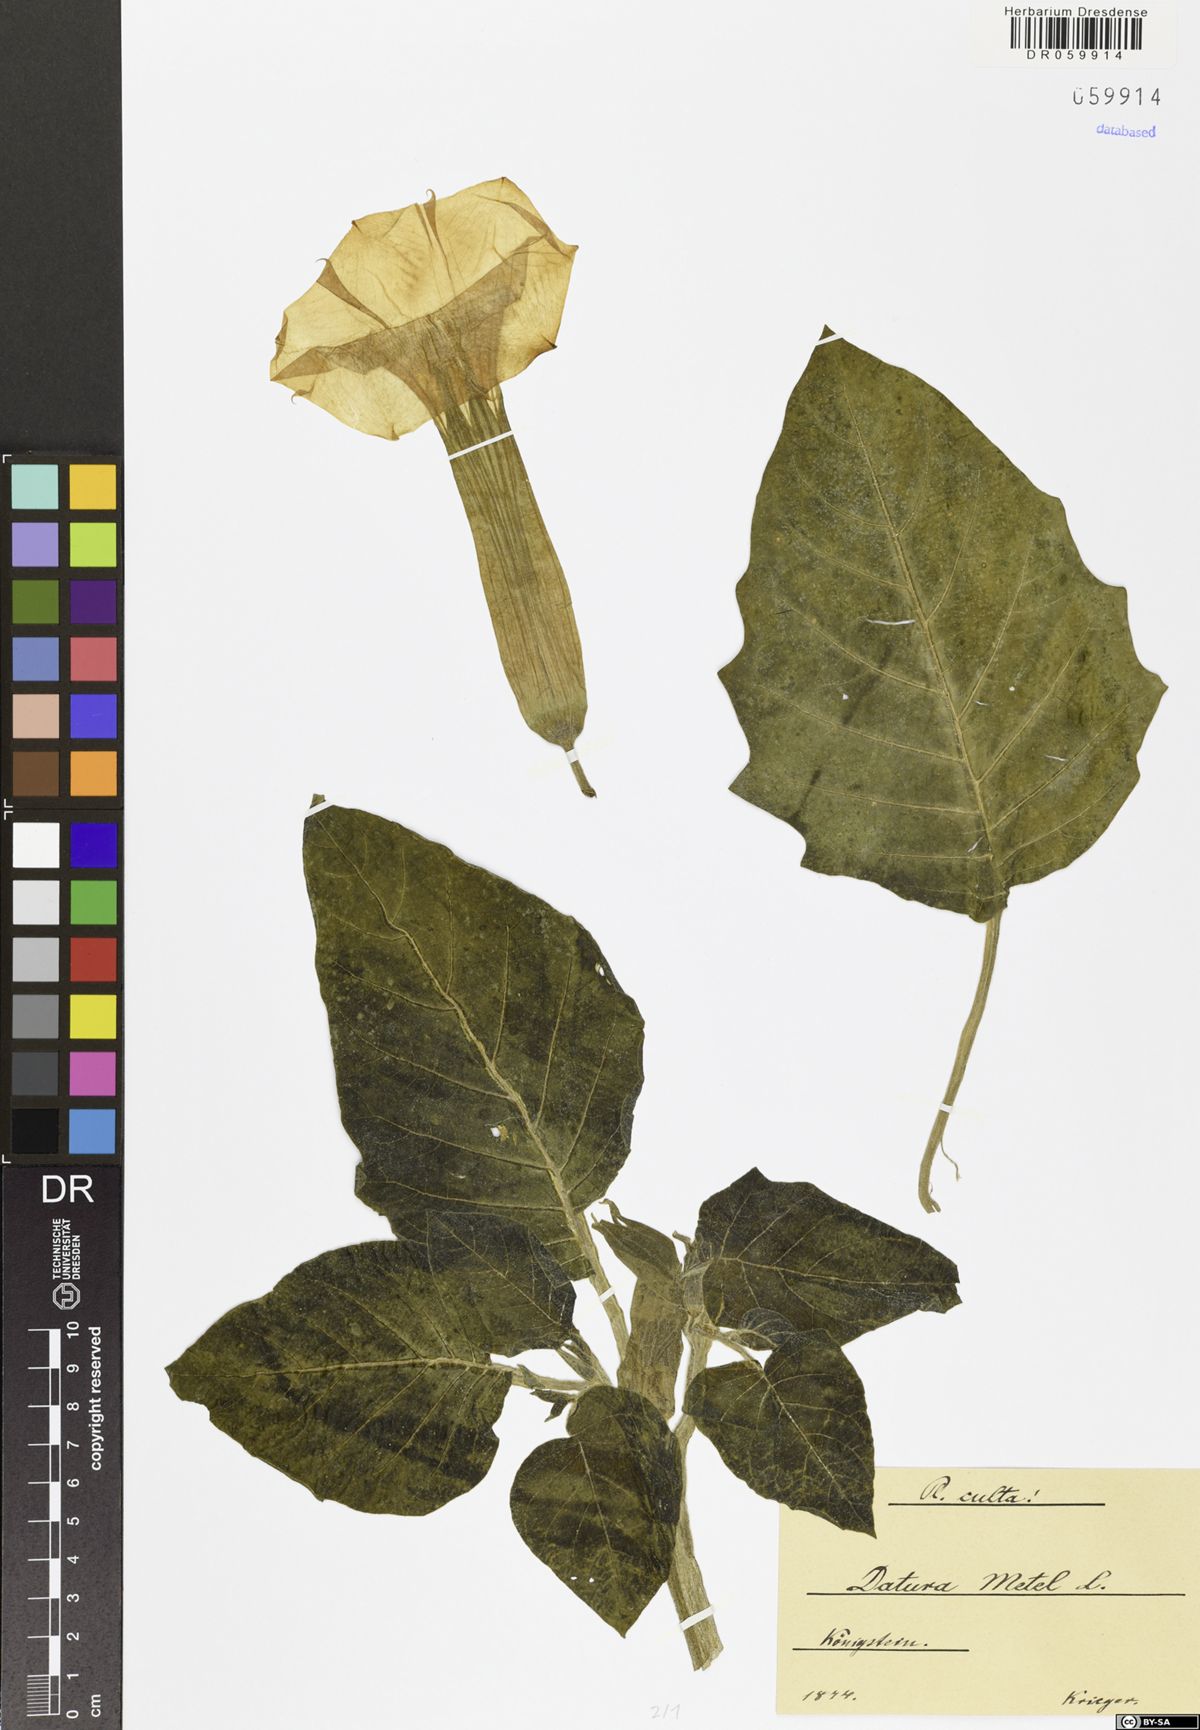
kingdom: Plantae
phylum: Tracheophyta
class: Magnoliopsida
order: Solanales
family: Solanaceae
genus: Datura
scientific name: Datura metel
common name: Jimsonweed
